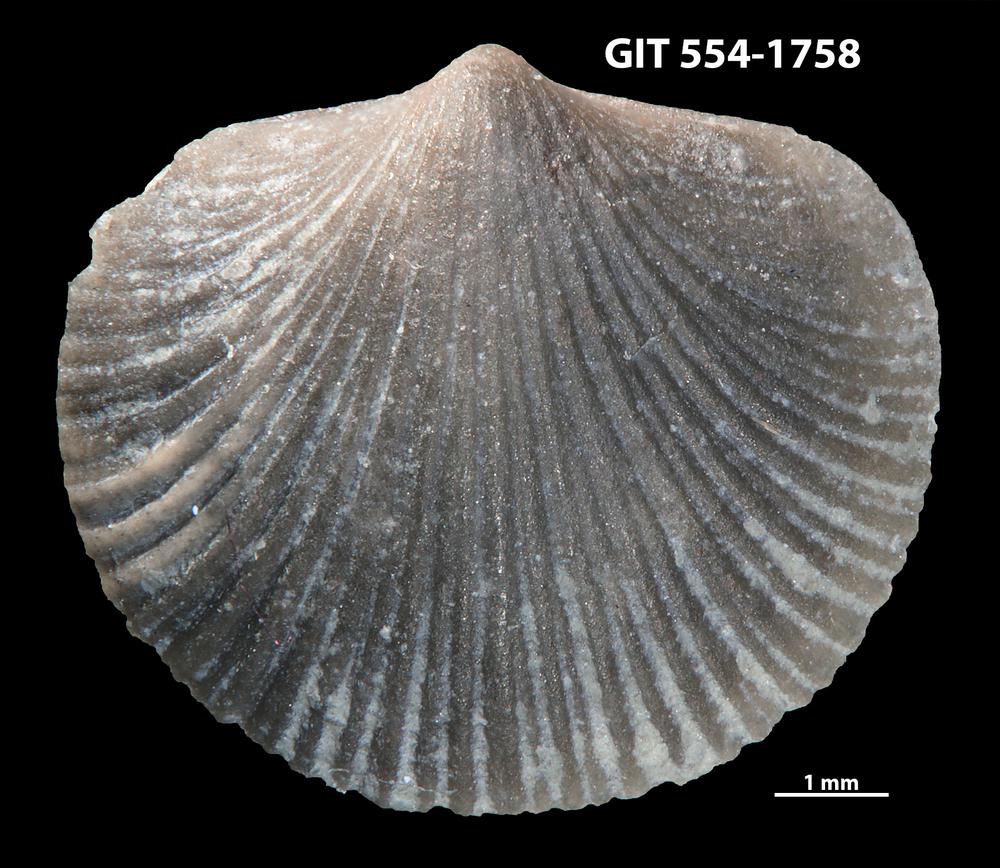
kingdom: Animalia
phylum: Brachiopoda
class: Rhynchonellata
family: Dalmanellidae
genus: Dalmanella
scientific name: Dalmanella cyclica
